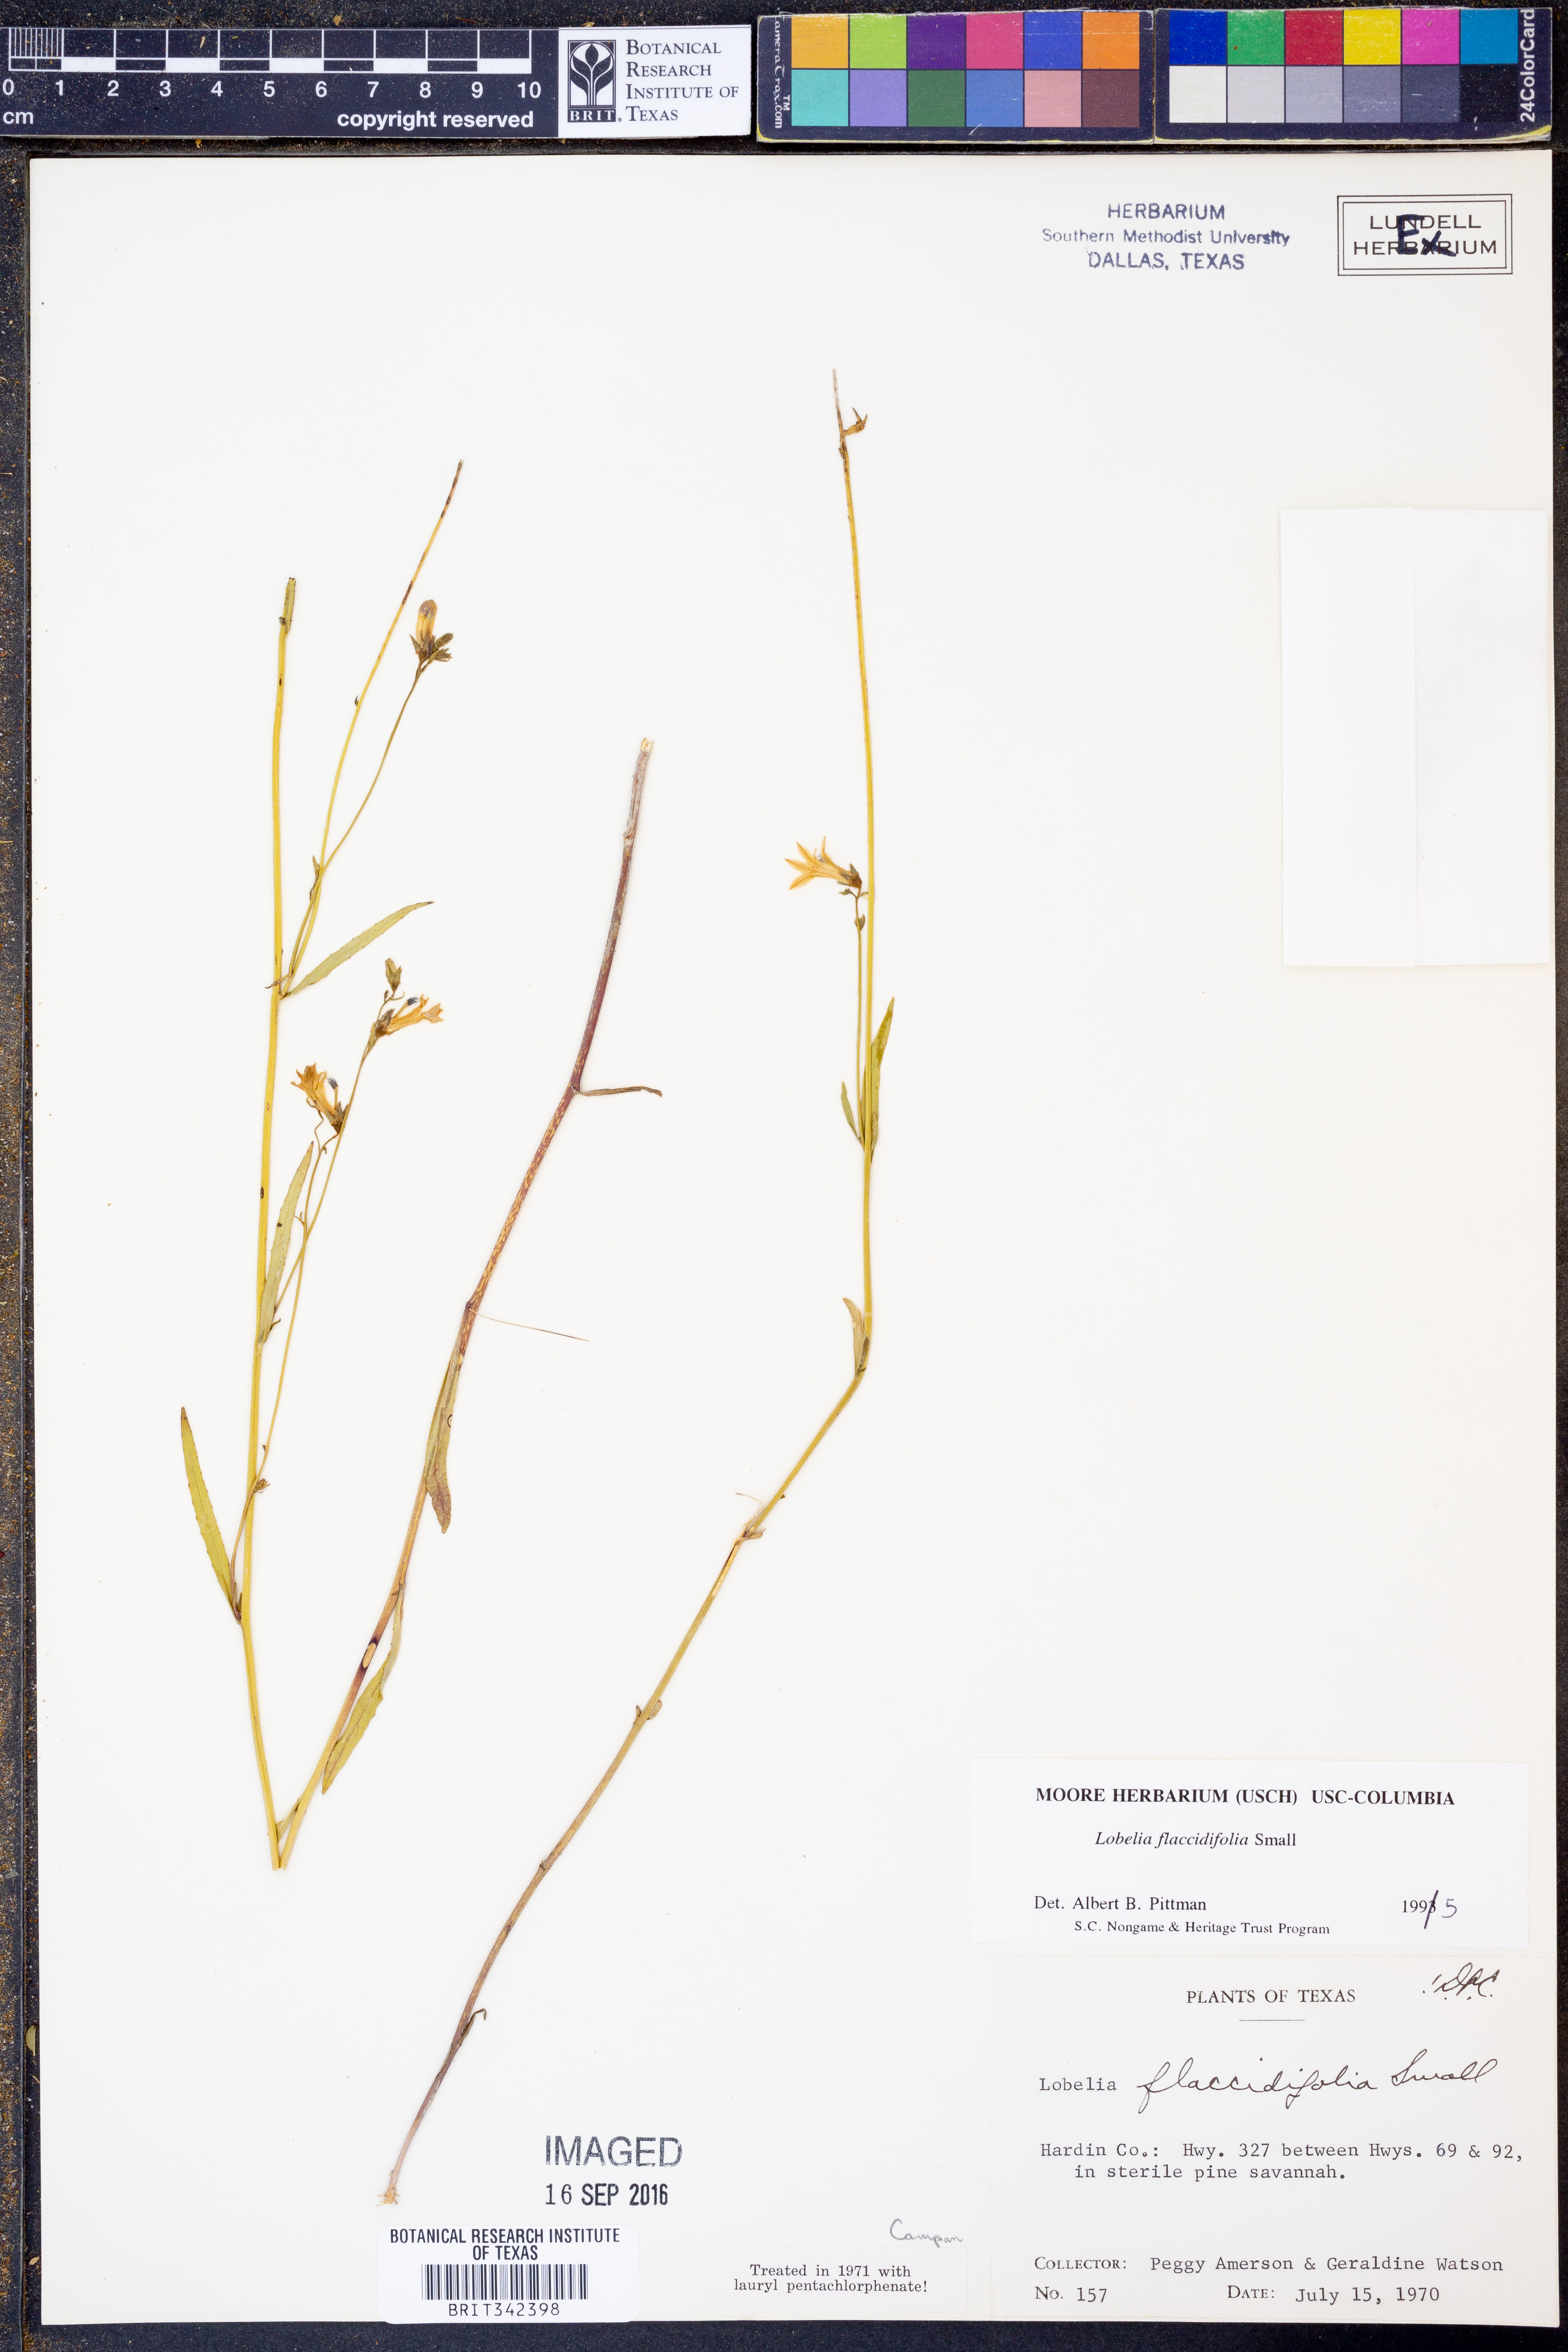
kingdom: Plantae
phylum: Tracheophyta
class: Magnoliopsida
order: Asterales
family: Campanulaceae
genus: Lobelia
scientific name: Lobelia flaccidifolia
